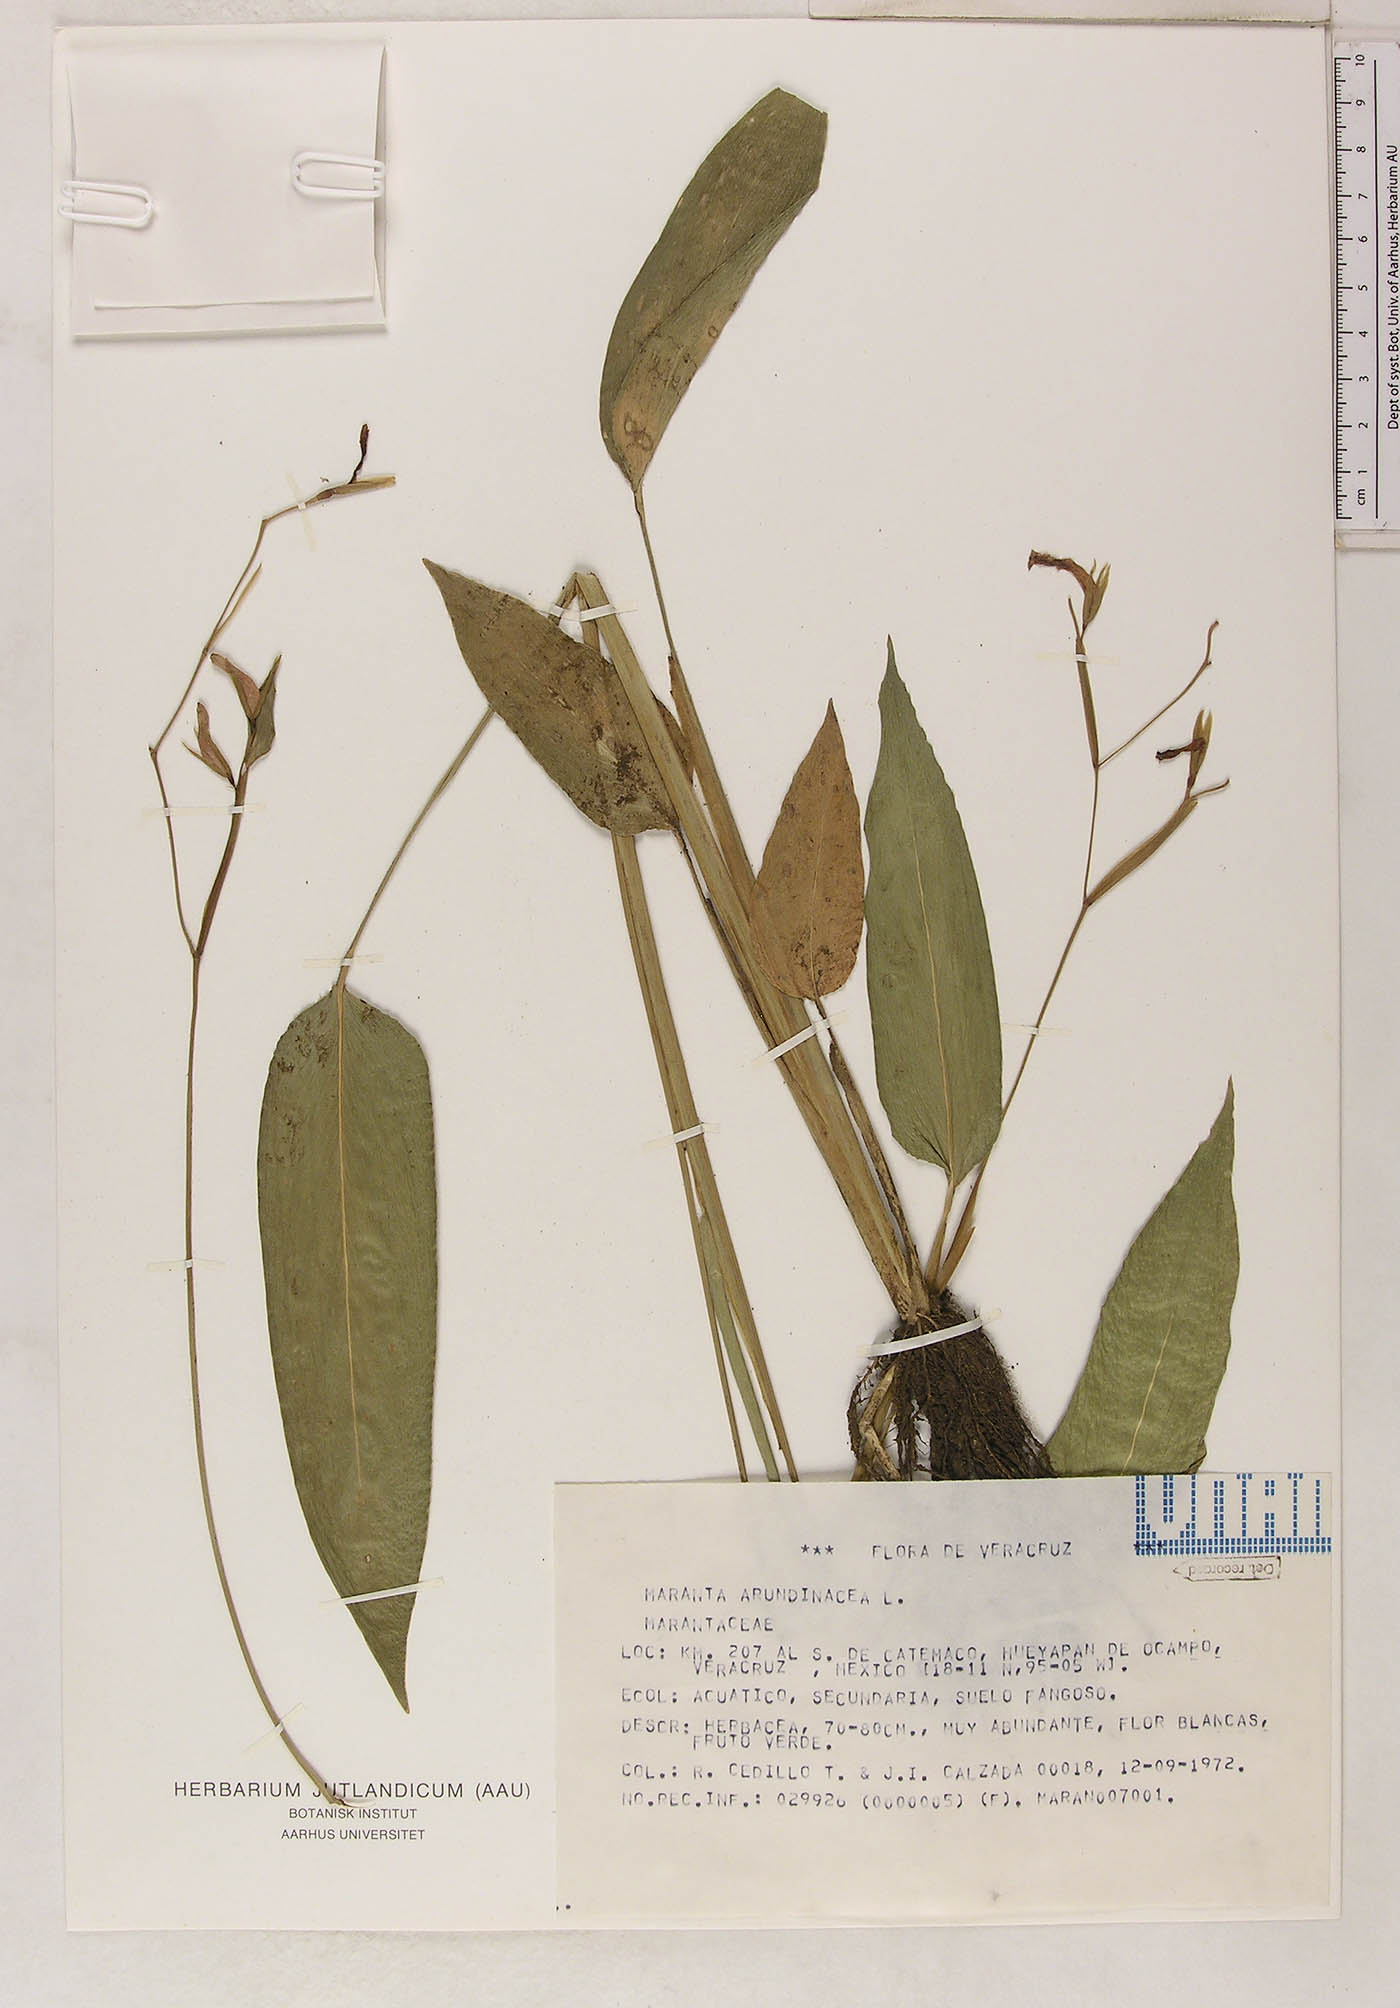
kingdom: Plantae
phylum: Tracheophyta
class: Liliopsida
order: Zingiberales
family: Marantaceae
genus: Maranta
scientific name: Maranta arundinacea
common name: Arrowroot
